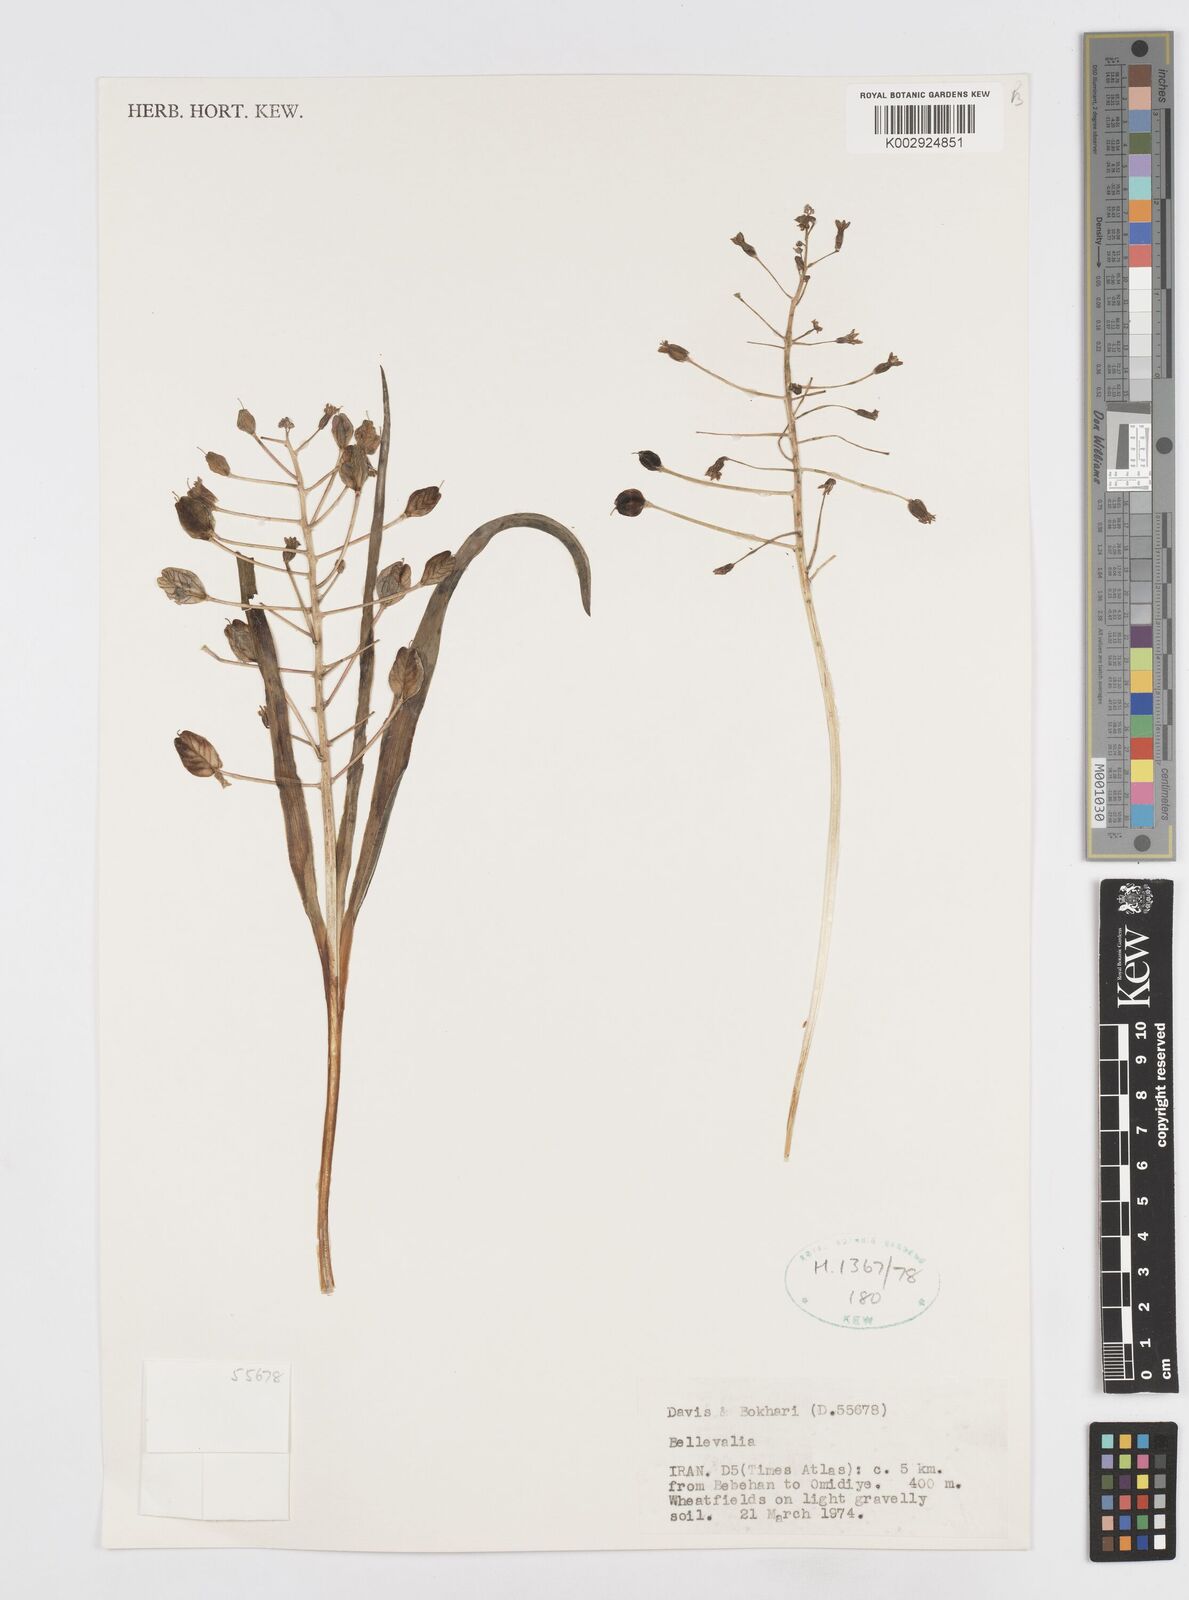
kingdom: Plantae
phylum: Tracheophyta
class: Liliopsida
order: Asparagales
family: Asparagaceae
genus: Bellevalia
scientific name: Bellevalia
